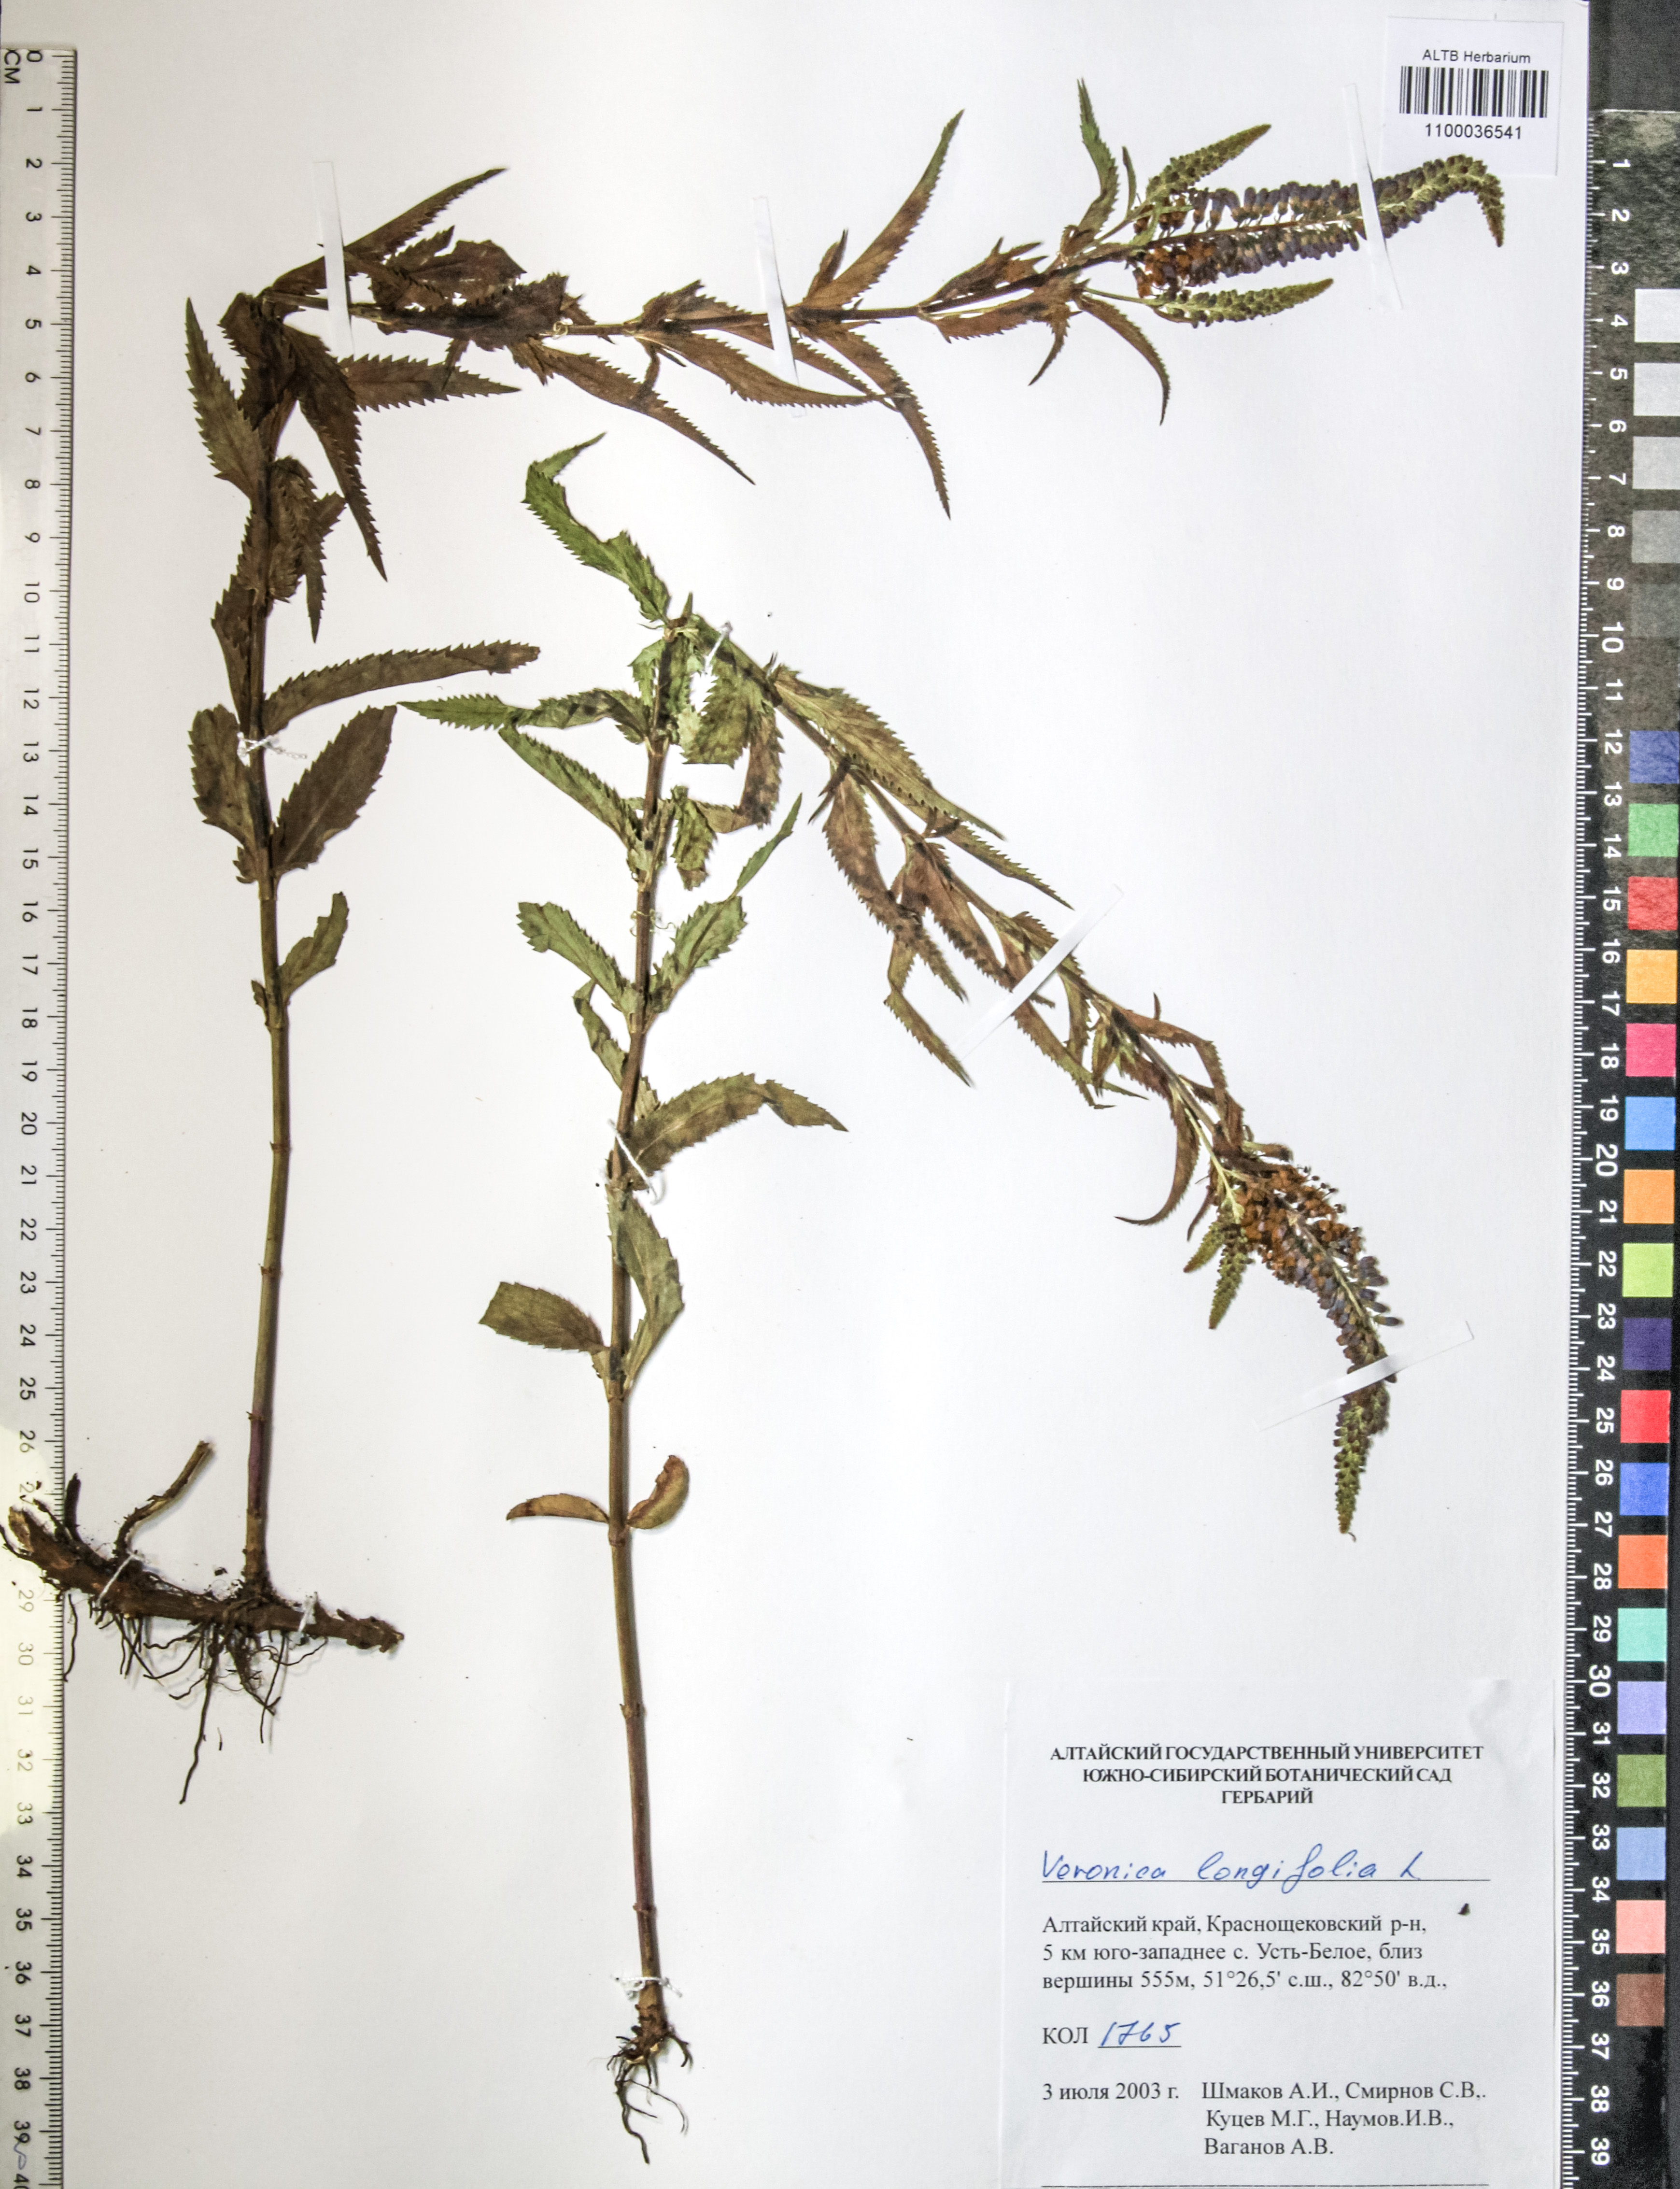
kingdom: Plantae
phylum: Tracheophyta
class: Magnoliopsida
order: Lamiales
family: Plantaginaceae
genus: Veronica
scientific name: Veronica longifolia
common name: Garden speedwell
